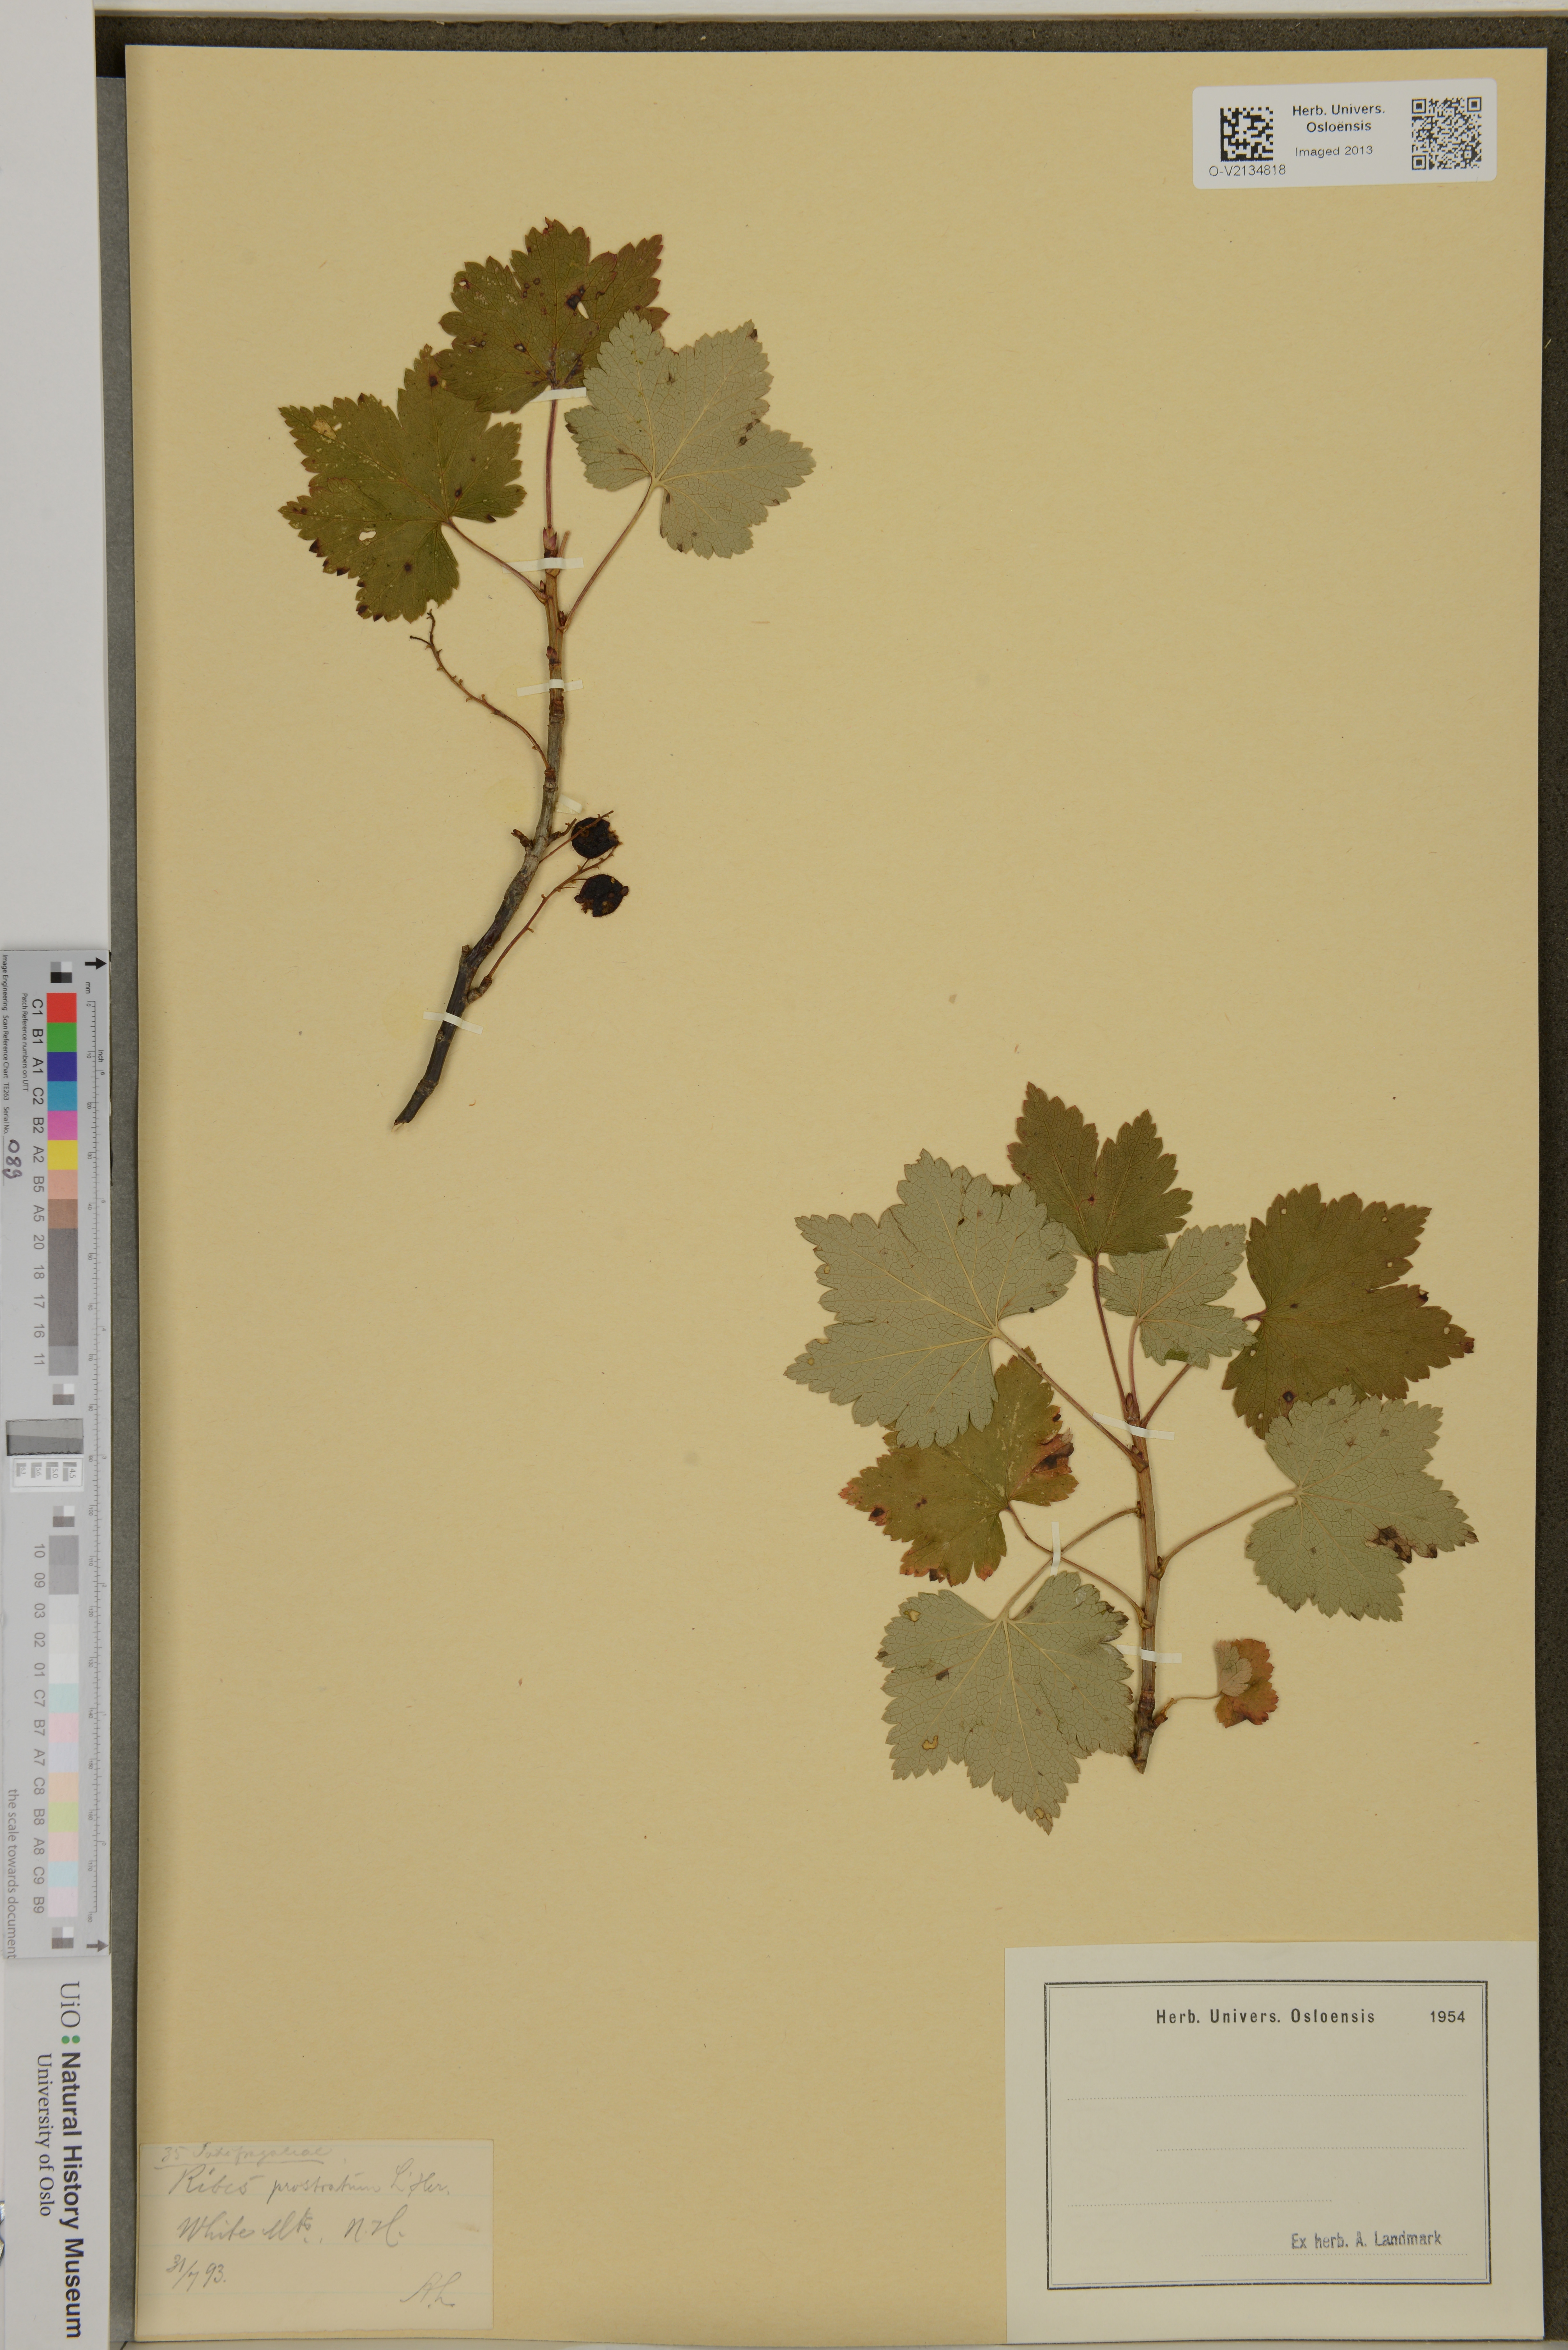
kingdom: Plantae
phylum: Tracheophyta
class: Magnoliopsida
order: Saxifragales
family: Grossulariaceae
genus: Ribes
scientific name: Ribes glandulosum
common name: Skunk currant
